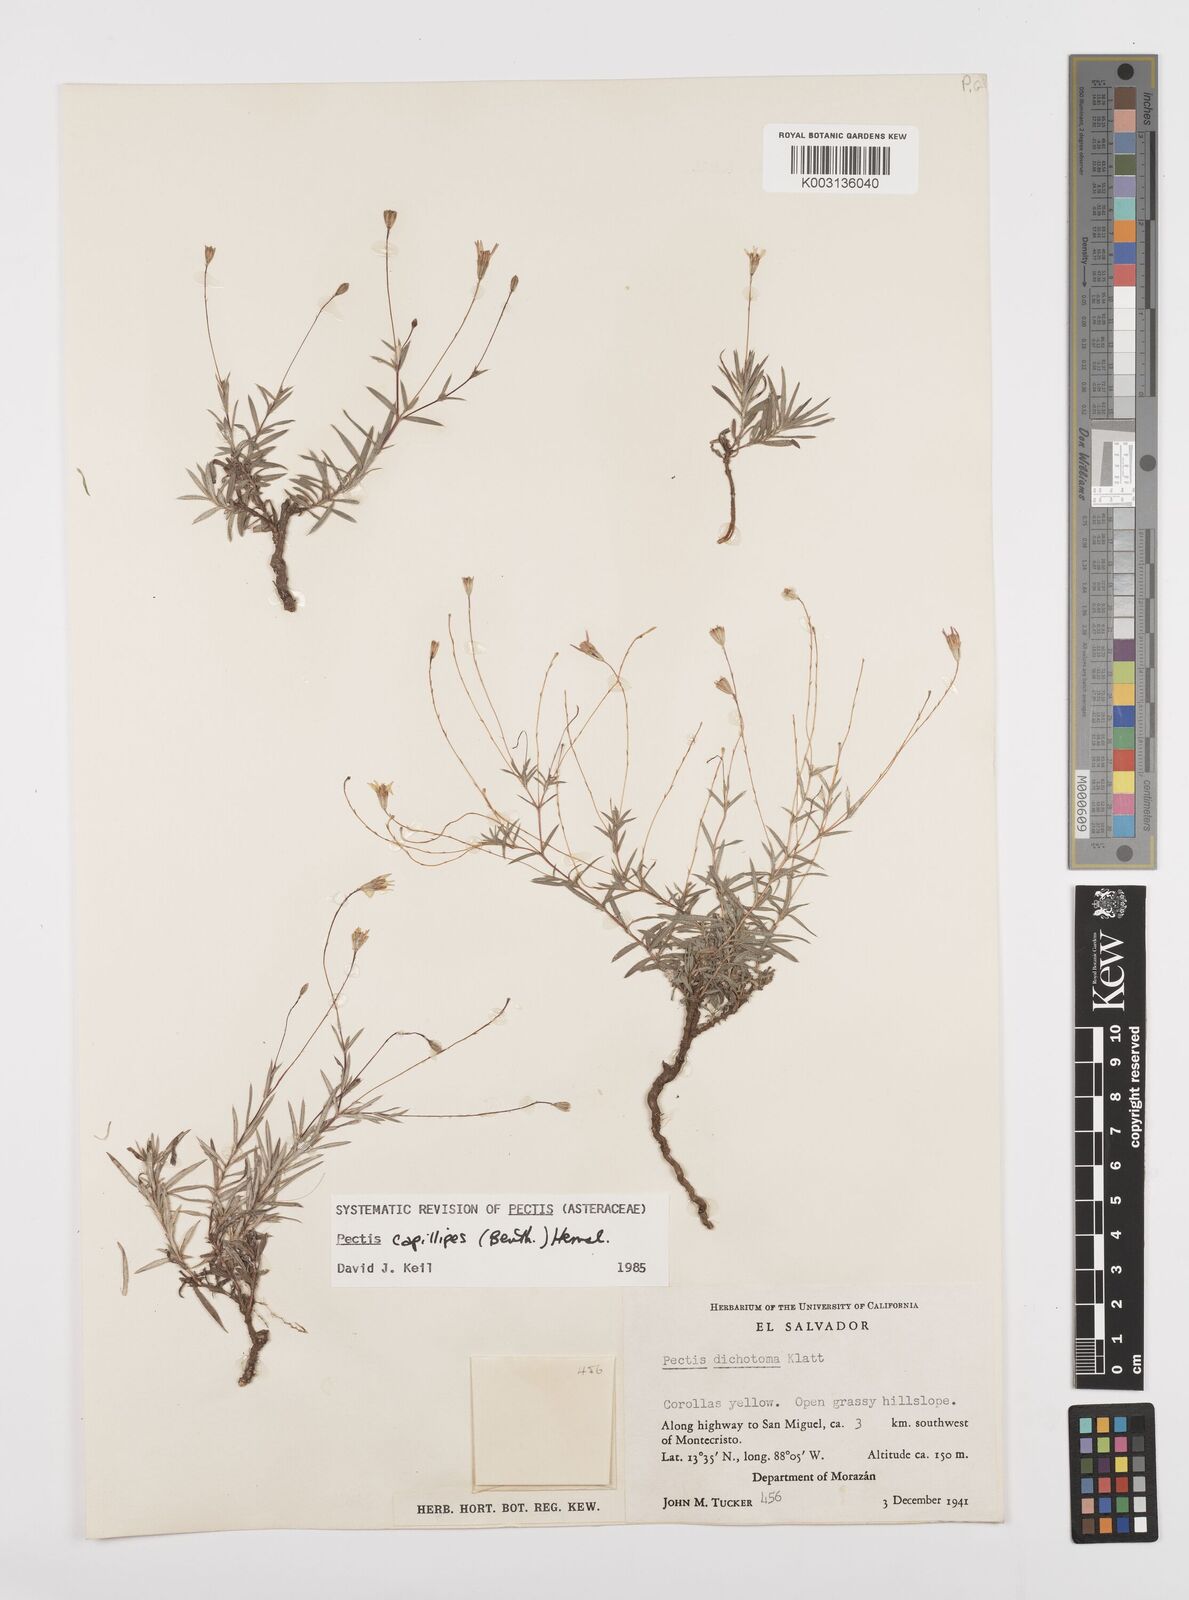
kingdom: Plantae
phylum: Tracheophyta
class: Magnoliopsida
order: Asterales
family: Asteraceae
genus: Pectis
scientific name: Pectis uniaristata
